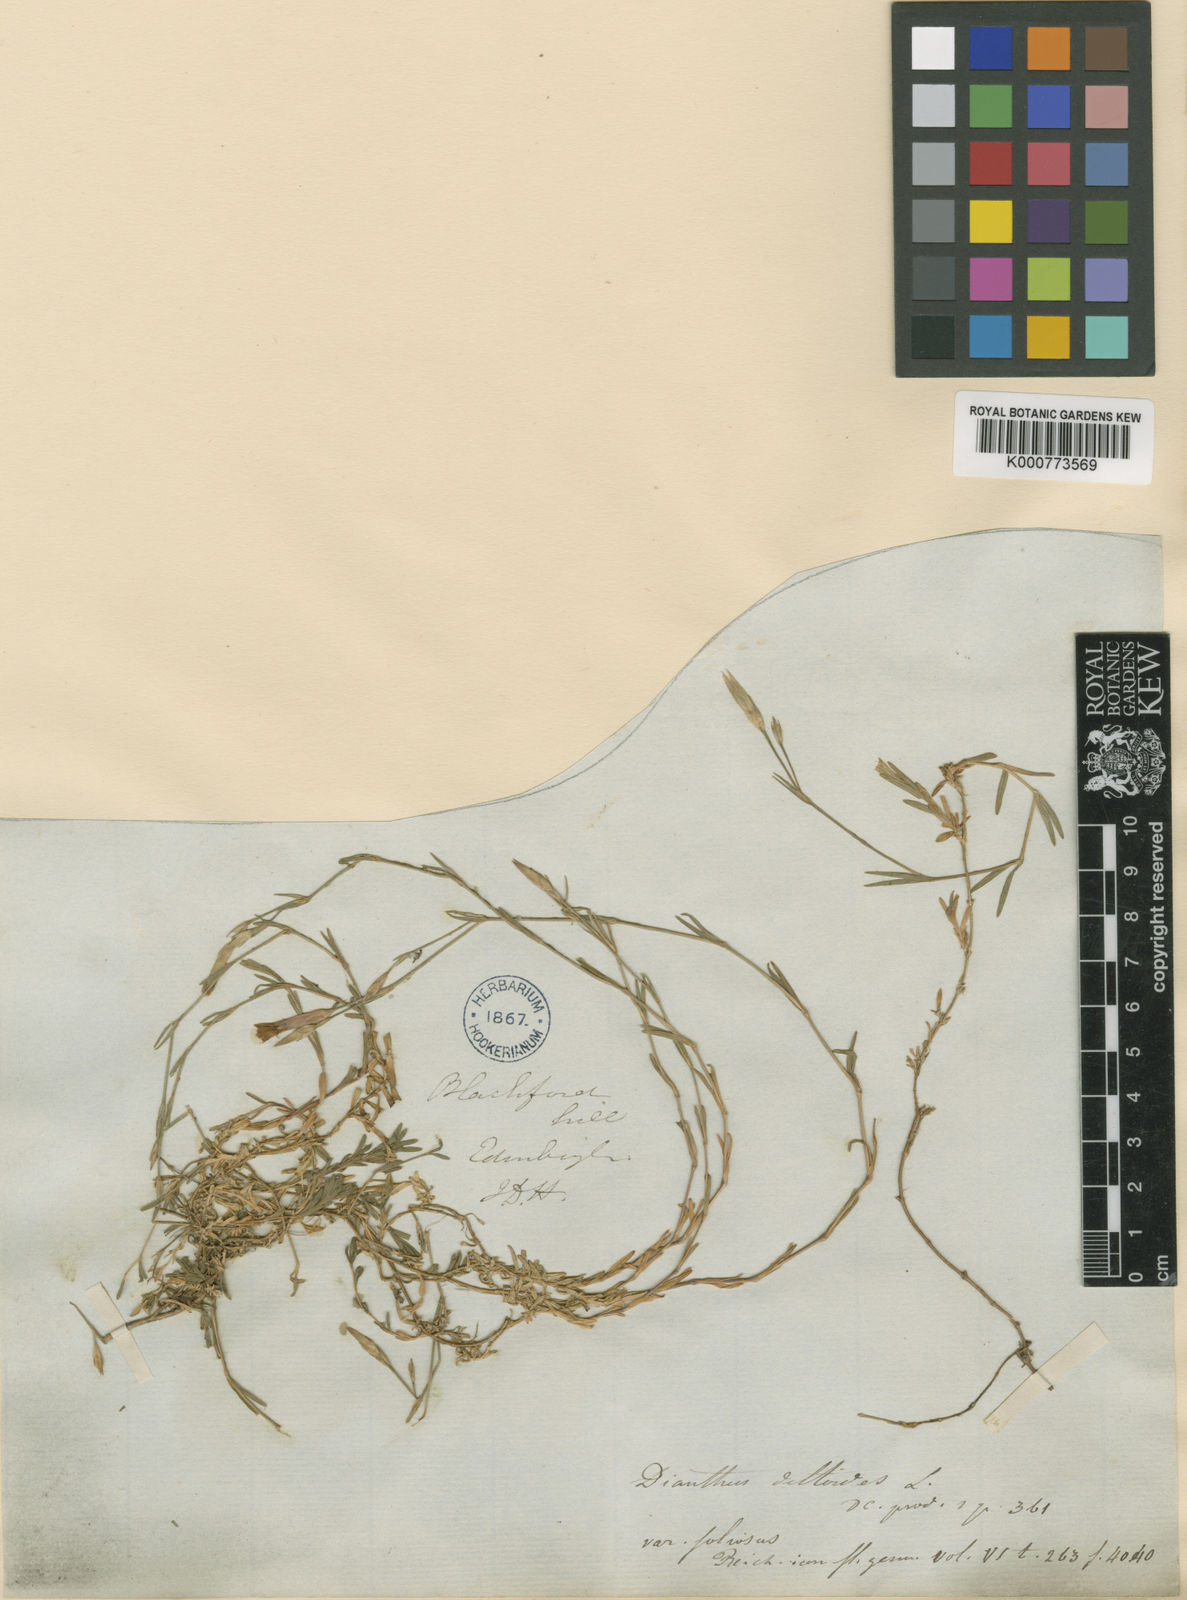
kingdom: Plantae
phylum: Tracheophyta
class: Magnoliopsida
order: Caryophyllales
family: Caryophyllaceae
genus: Dianthus
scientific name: Dianthus deltoides
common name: Maiden pink
